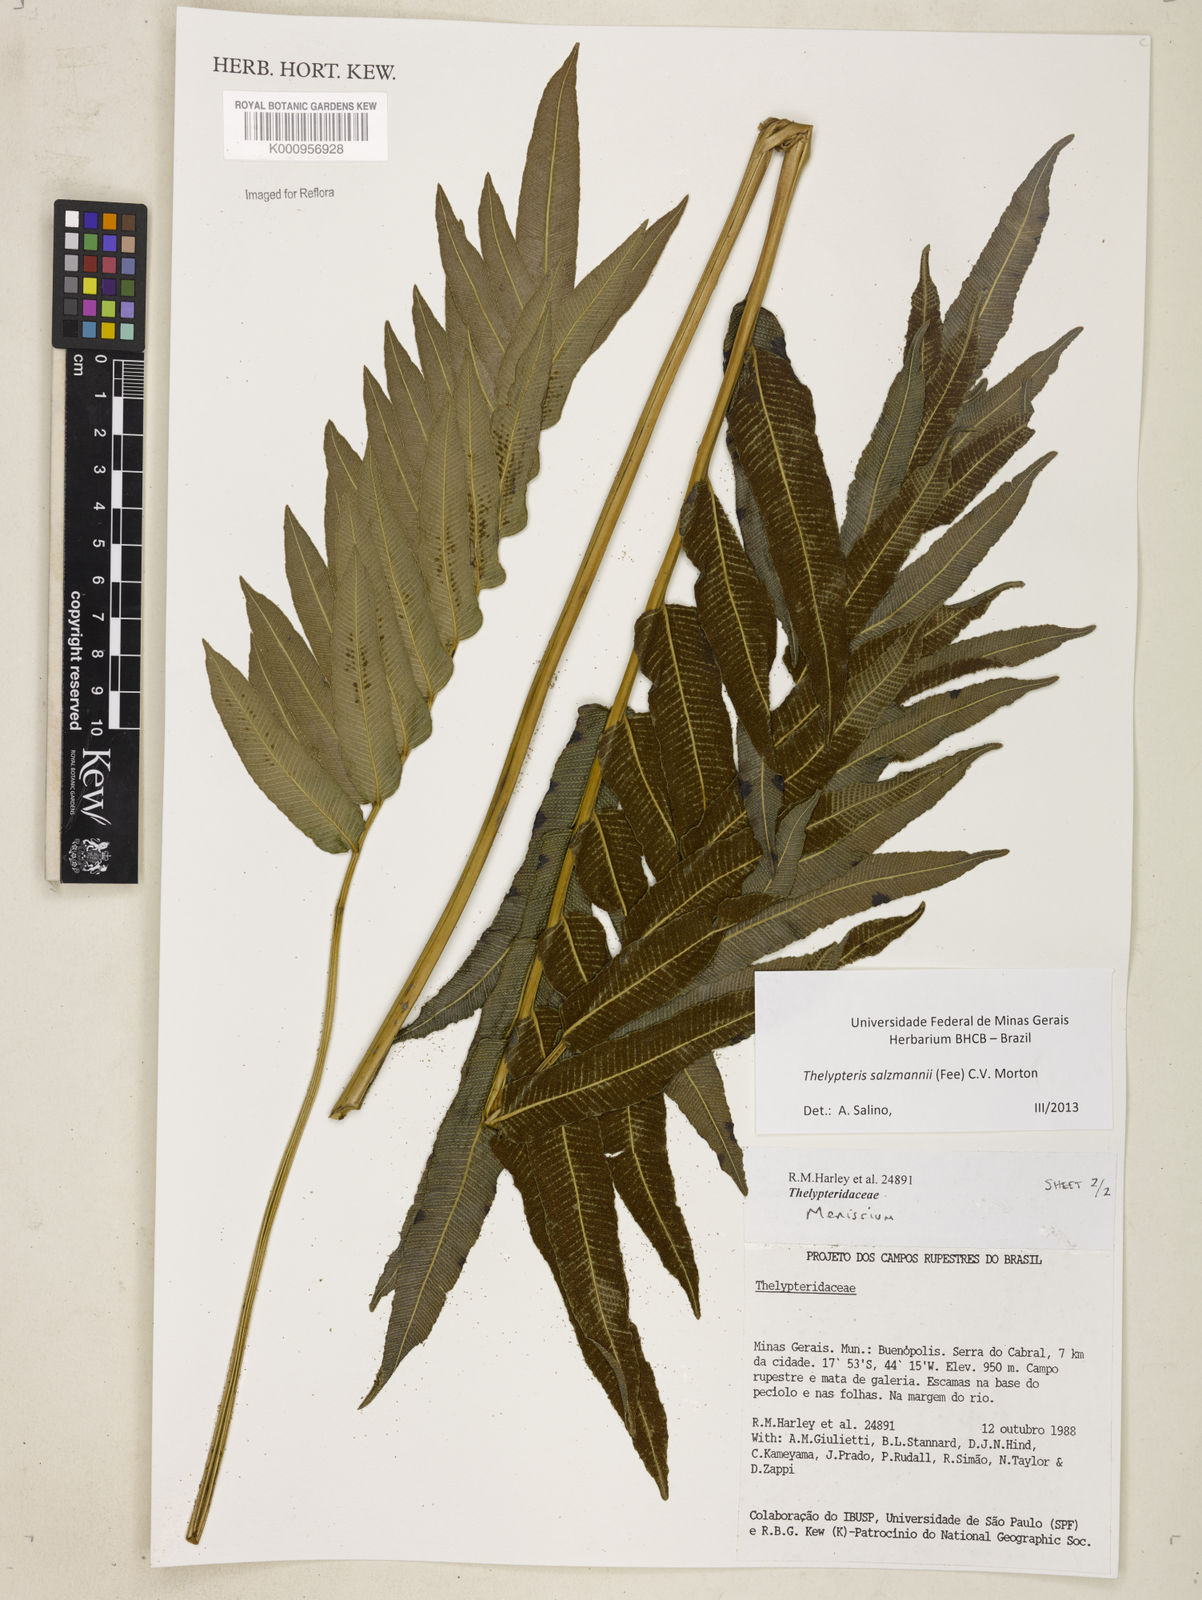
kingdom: Plantae
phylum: Tracheophyta
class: Polypodiopsida
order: Polypodiales
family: Thelypteridaceae
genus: Meniscium
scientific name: Meniscium arborescens
